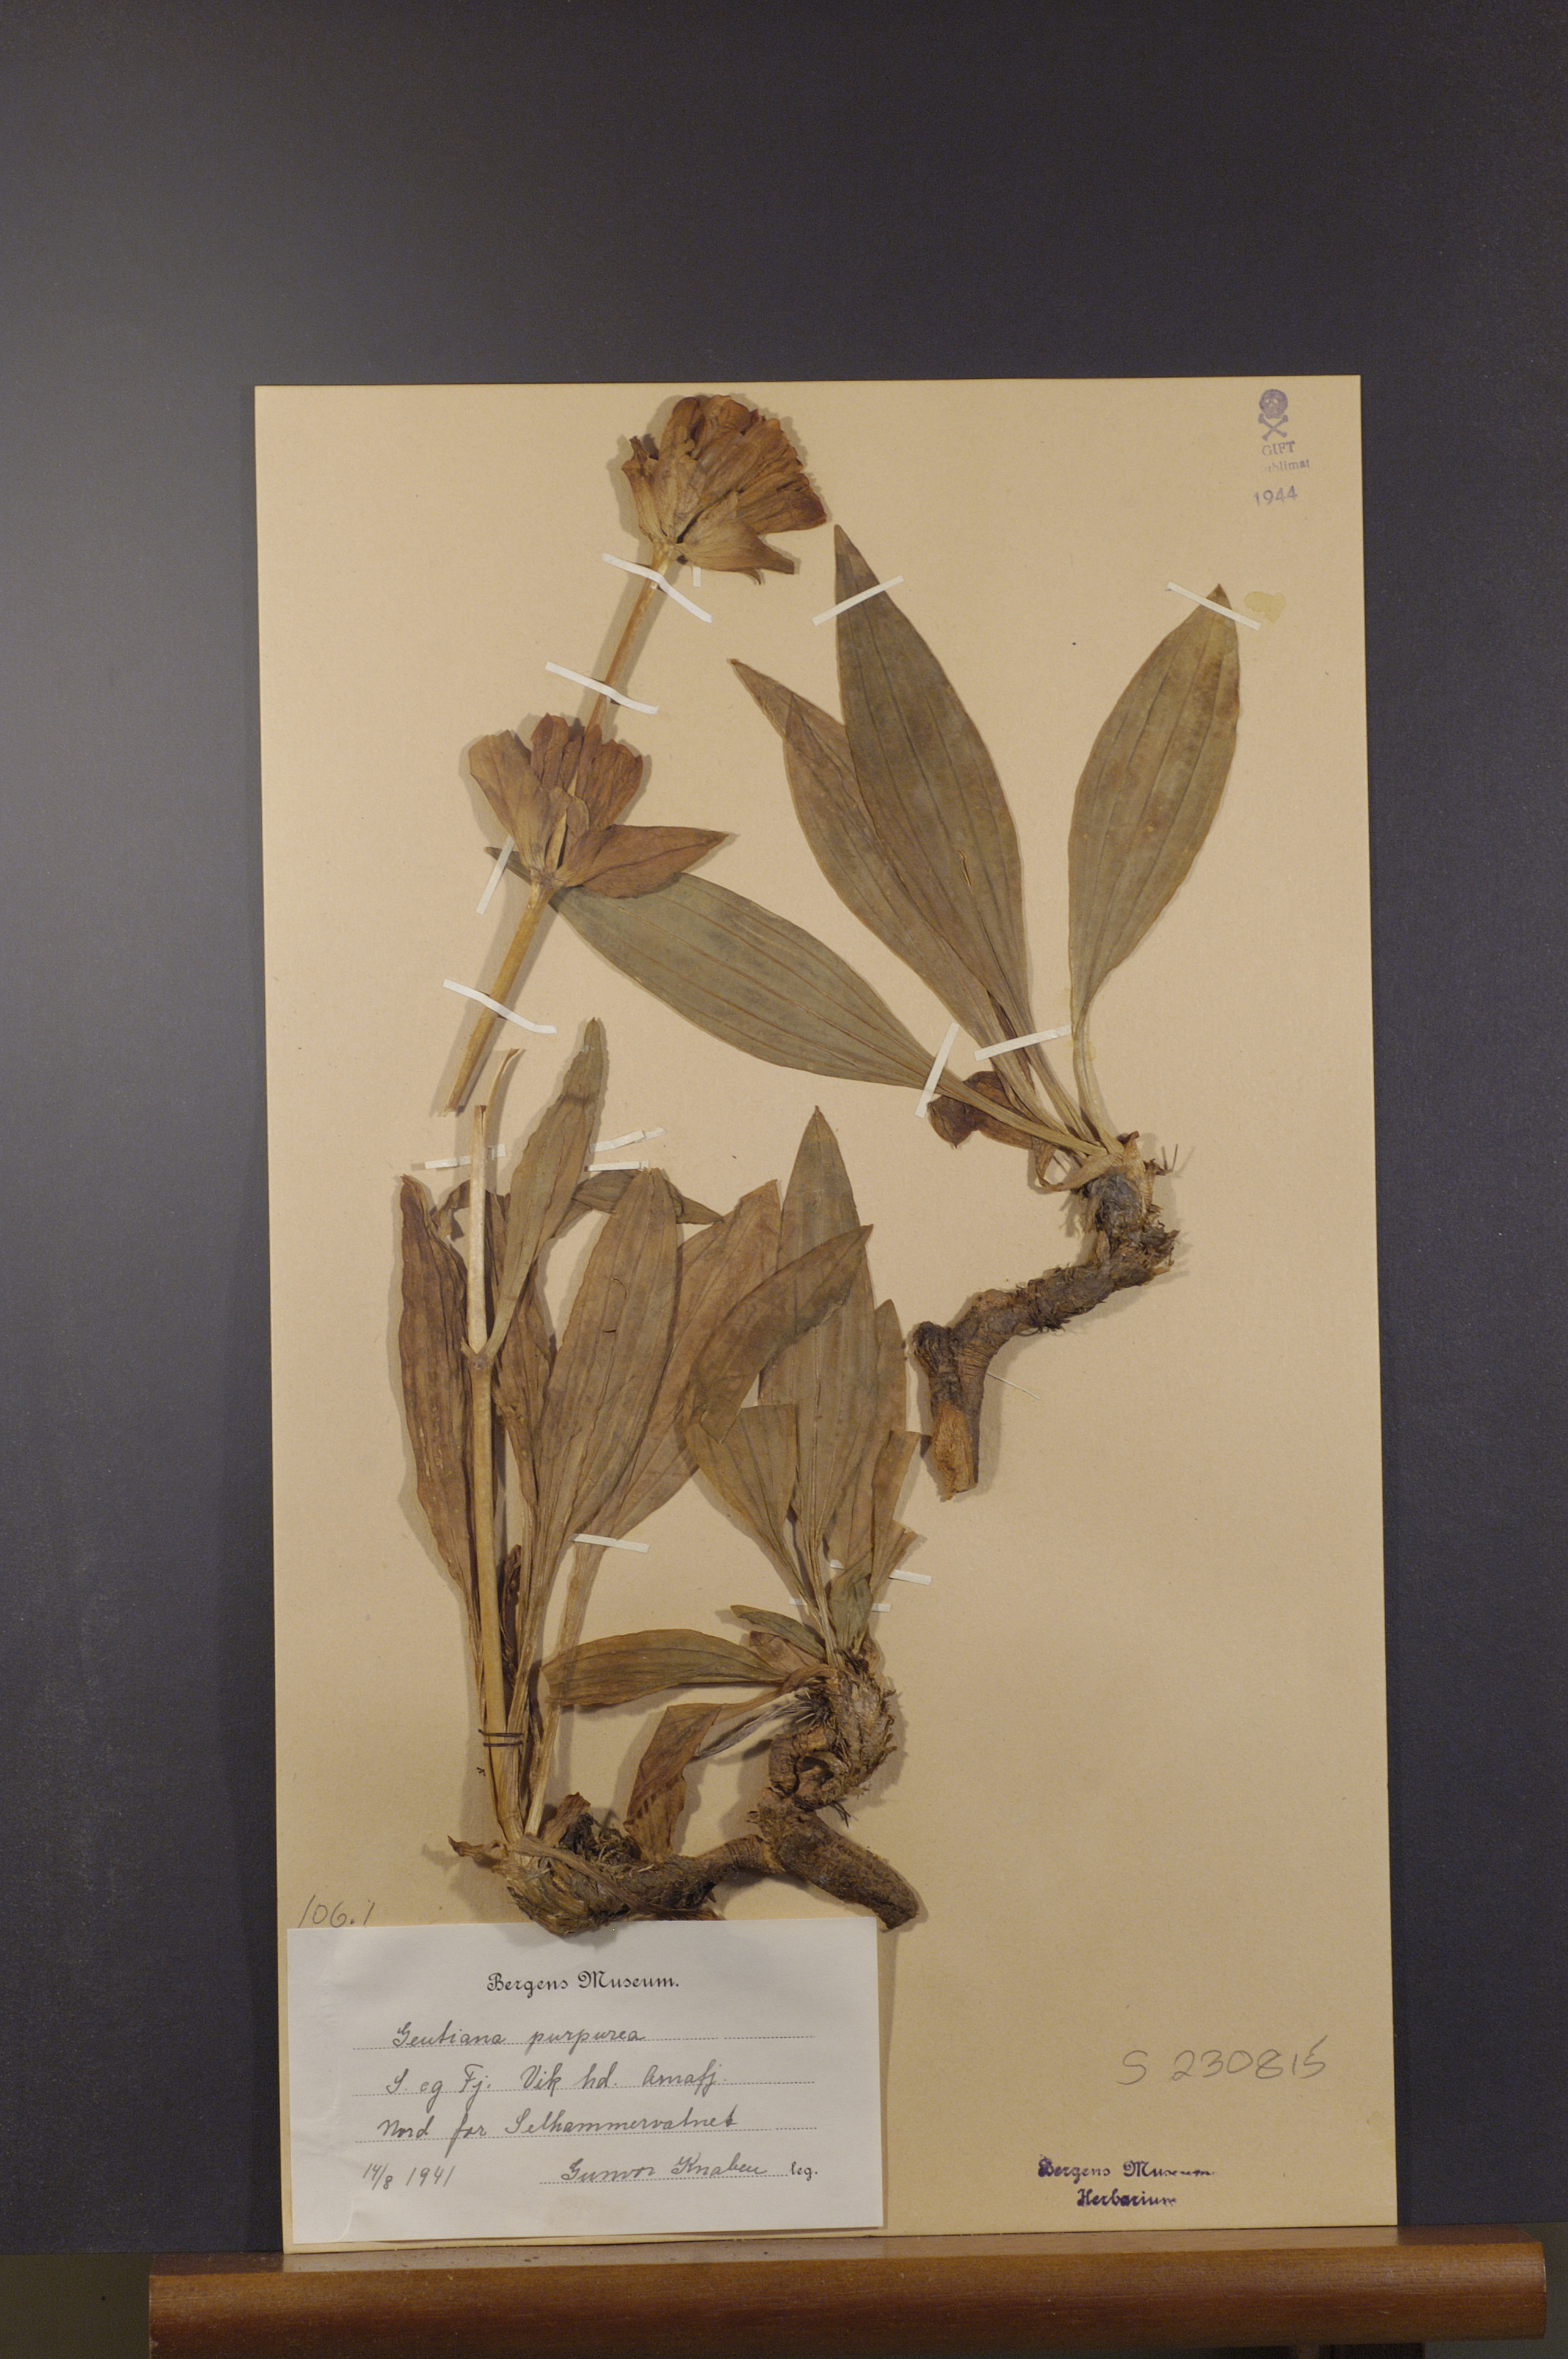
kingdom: Plantae
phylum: Tracheophyta
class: Magnoliopsida
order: Gentianales
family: Gentianaceae
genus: Gentiana
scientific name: Gentiana purpurea
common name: Purple gentian
